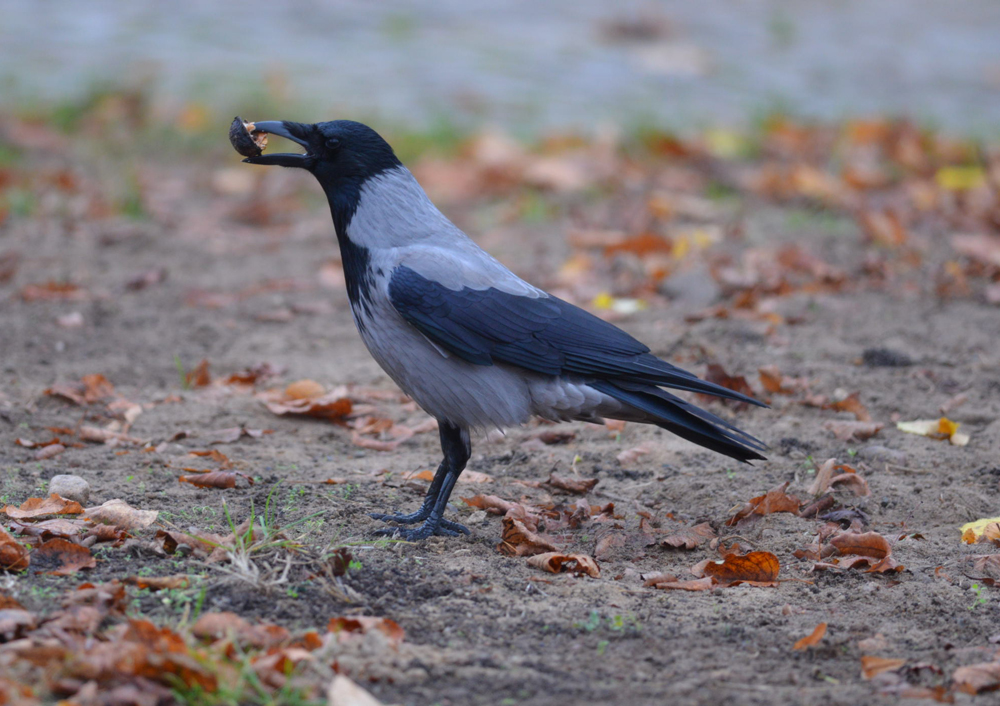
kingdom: Animalia
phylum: Chordata
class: Aves
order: Passeriformes
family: Corvidae
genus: Corvus
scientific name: Corvus cornix
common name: Hooded crow
